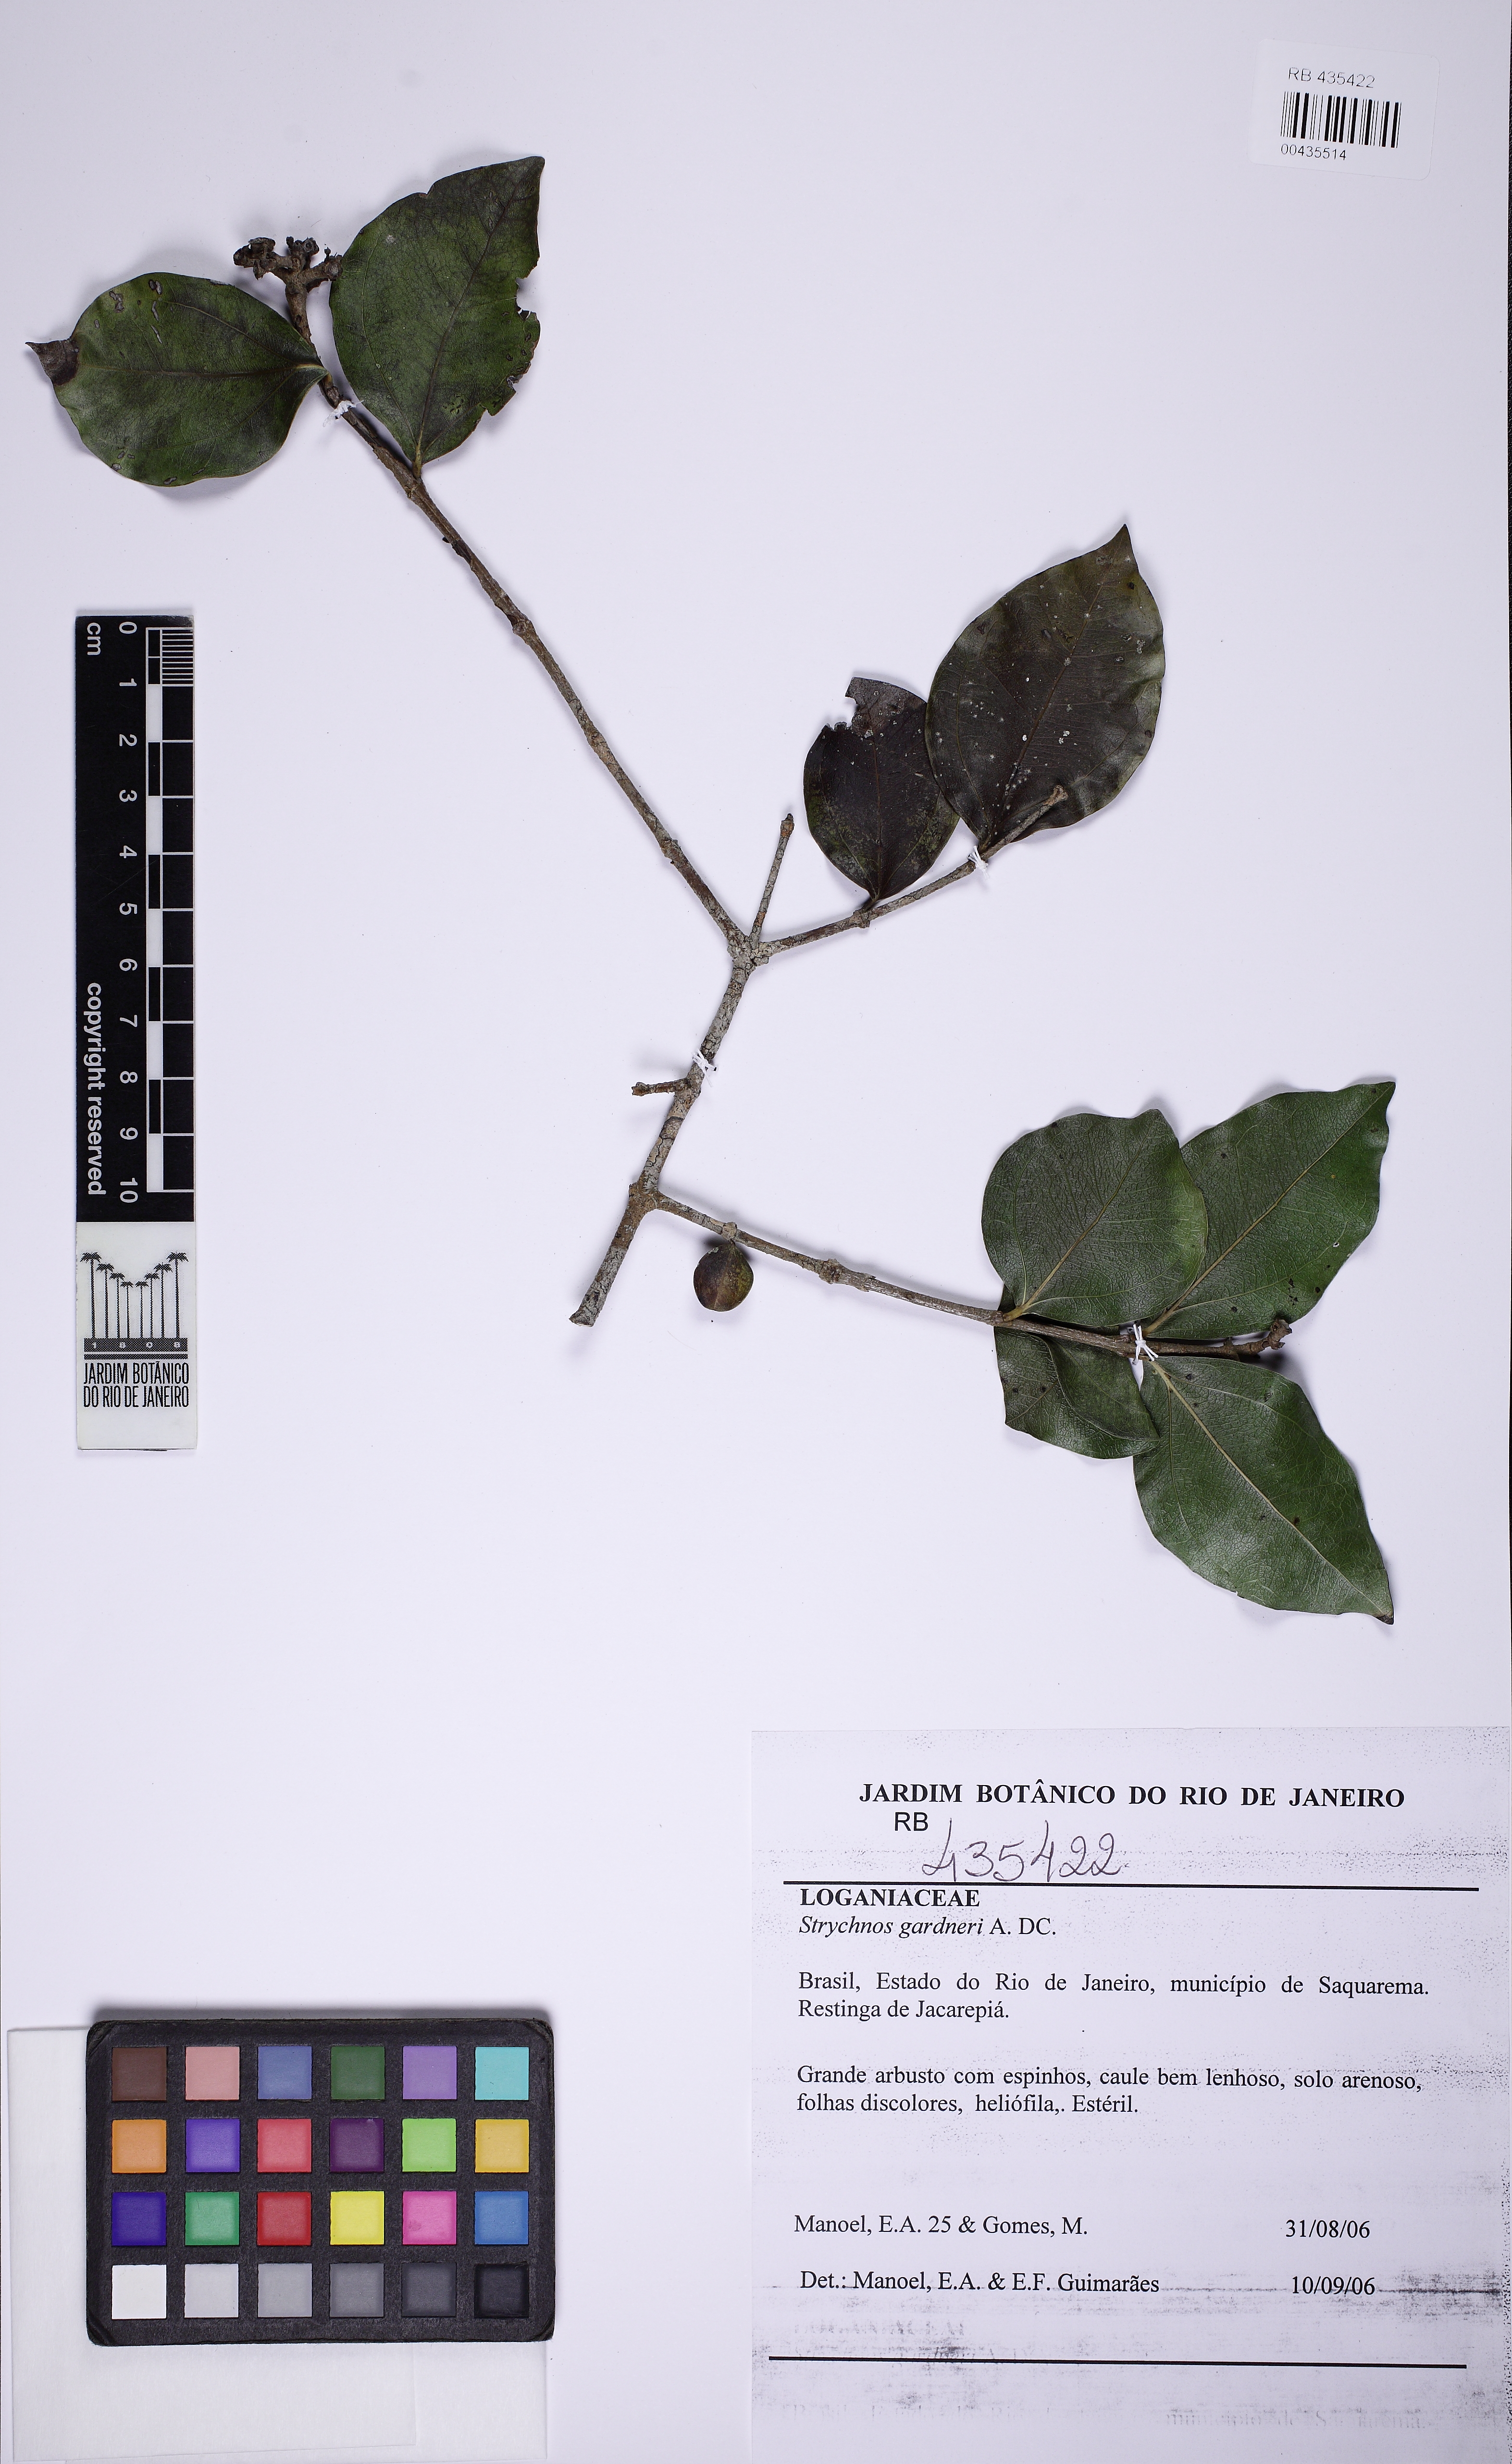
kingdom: Plantae
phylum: Tracheophyta
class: Magnoliopsida
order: Gentianales
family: Loganiaceae
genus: Strychnos
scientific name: Strychnos gardneri
